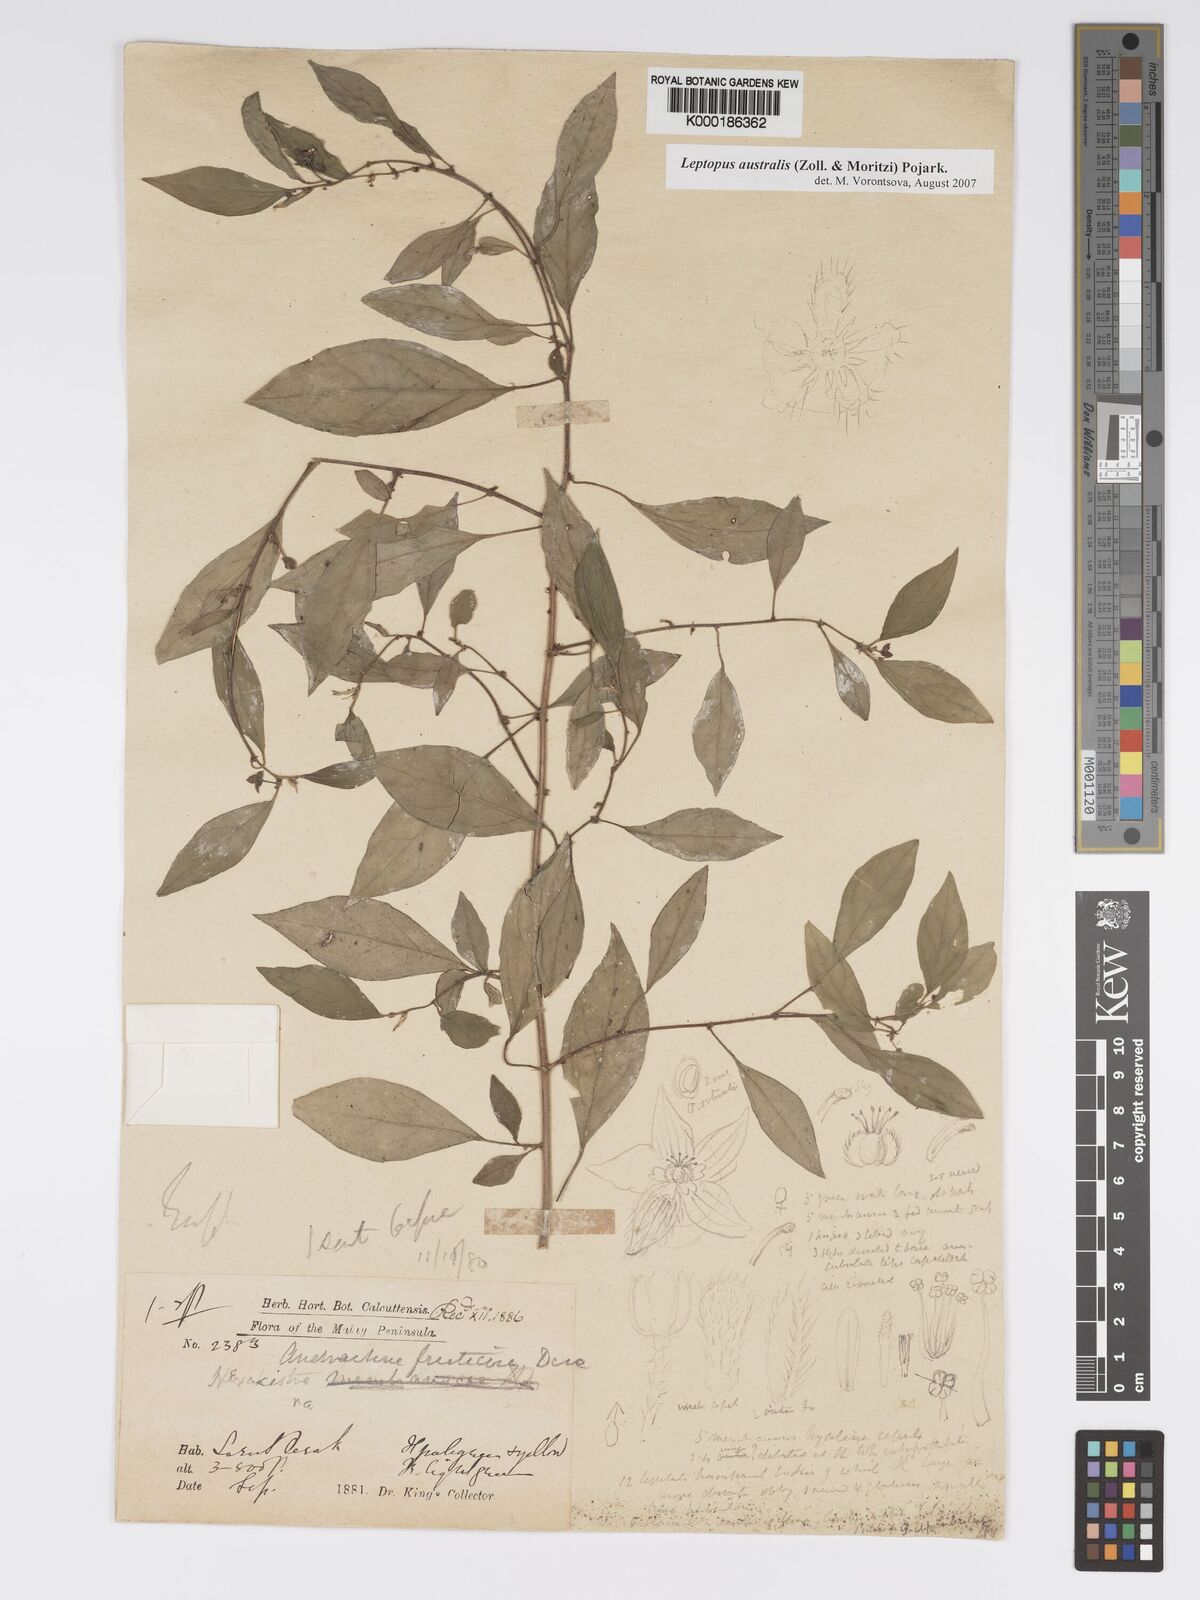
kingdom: Plantae
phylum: Tracheophyta
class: Magnoliopsida
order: Malpighiales
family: Phyllanthaceae
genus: Leptopus
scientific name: Leptopus australis
